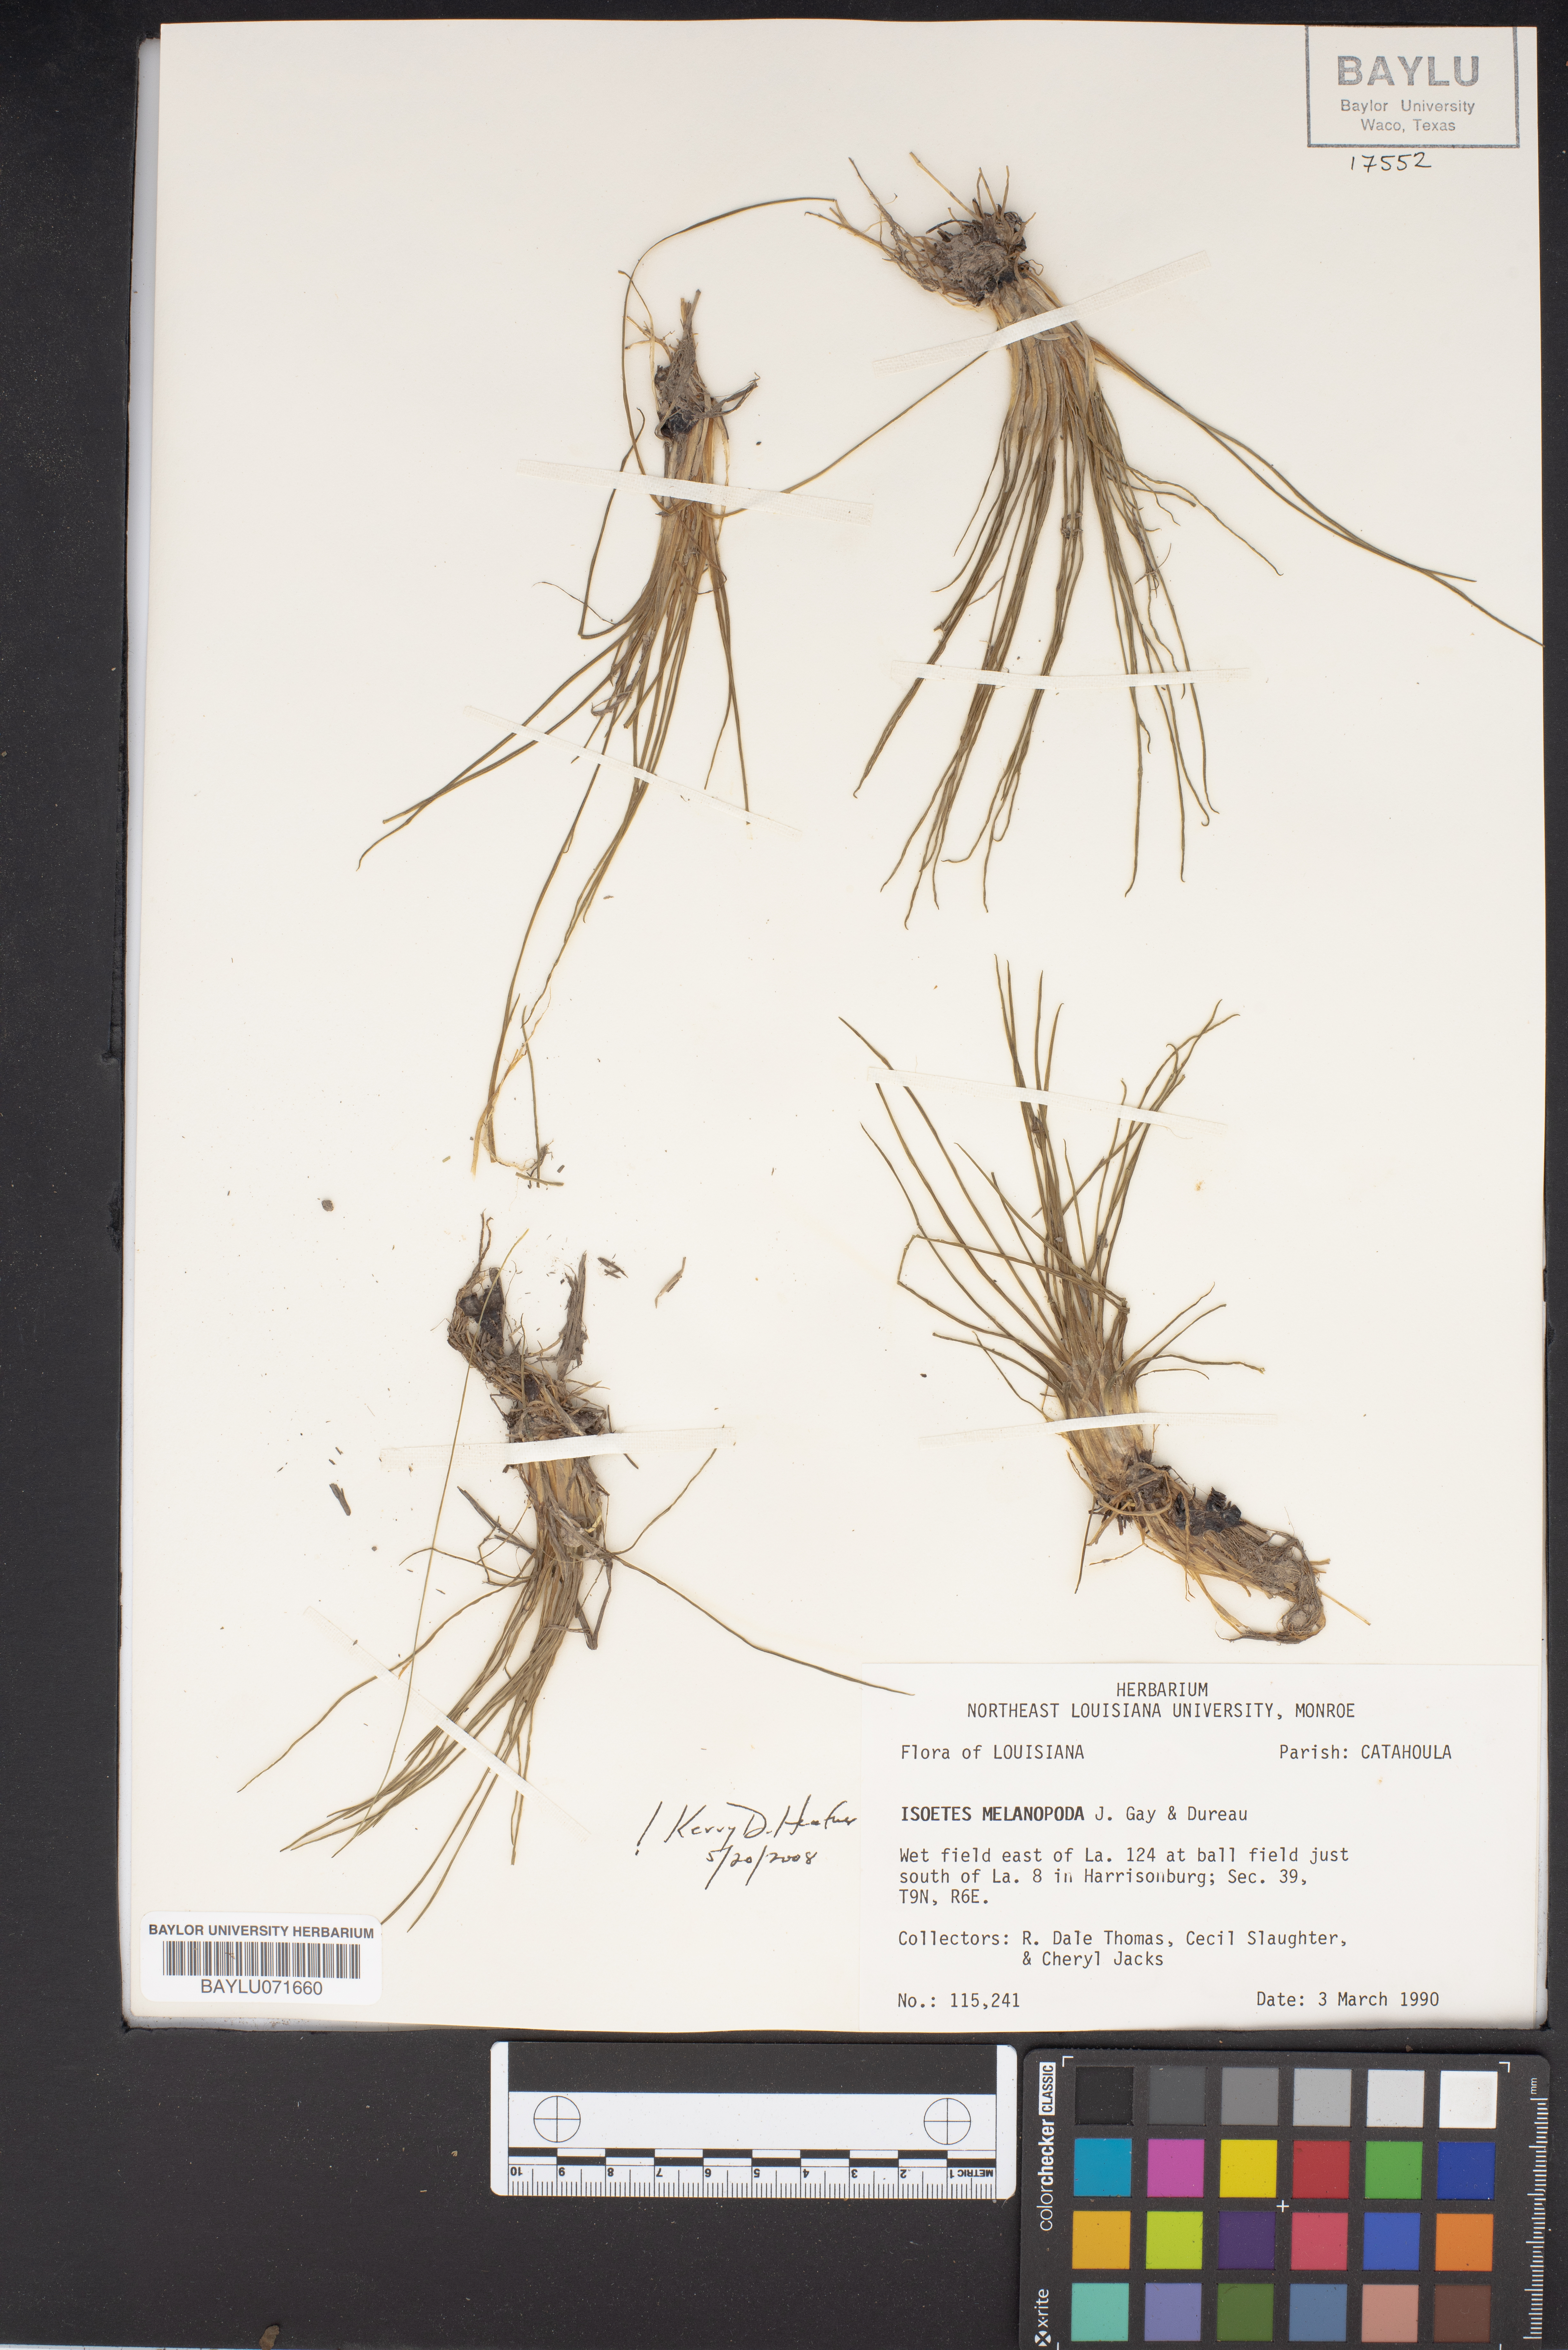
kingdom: Plantae
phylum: Tracheophyta
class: Lycopodiopsida
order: Isoetales
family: Isoetaceae
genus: Isoetes
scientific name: Isoetes melanopoda
